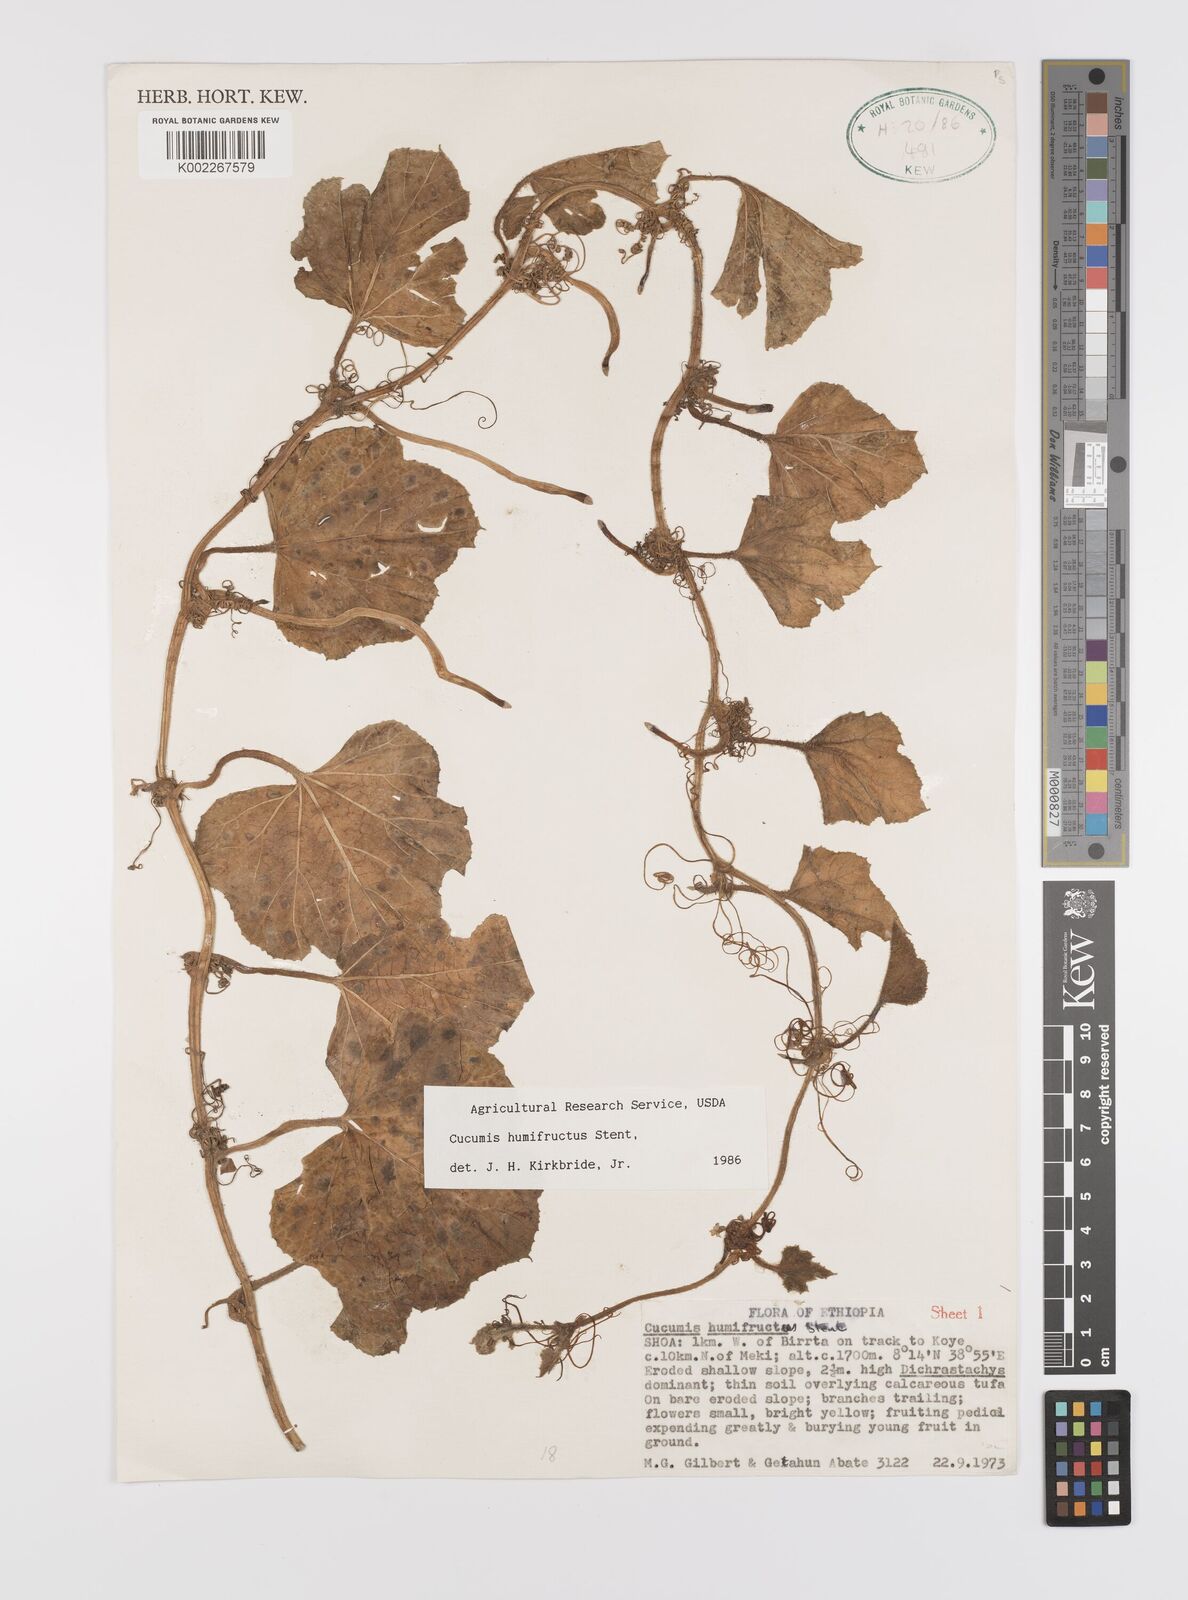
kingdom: Plantae
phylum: Tracheophyta
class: Magnoliopsida
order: Cucurbitales
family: Cucurbitaceae
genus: Cucumis
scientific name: Cucumis humofructus
